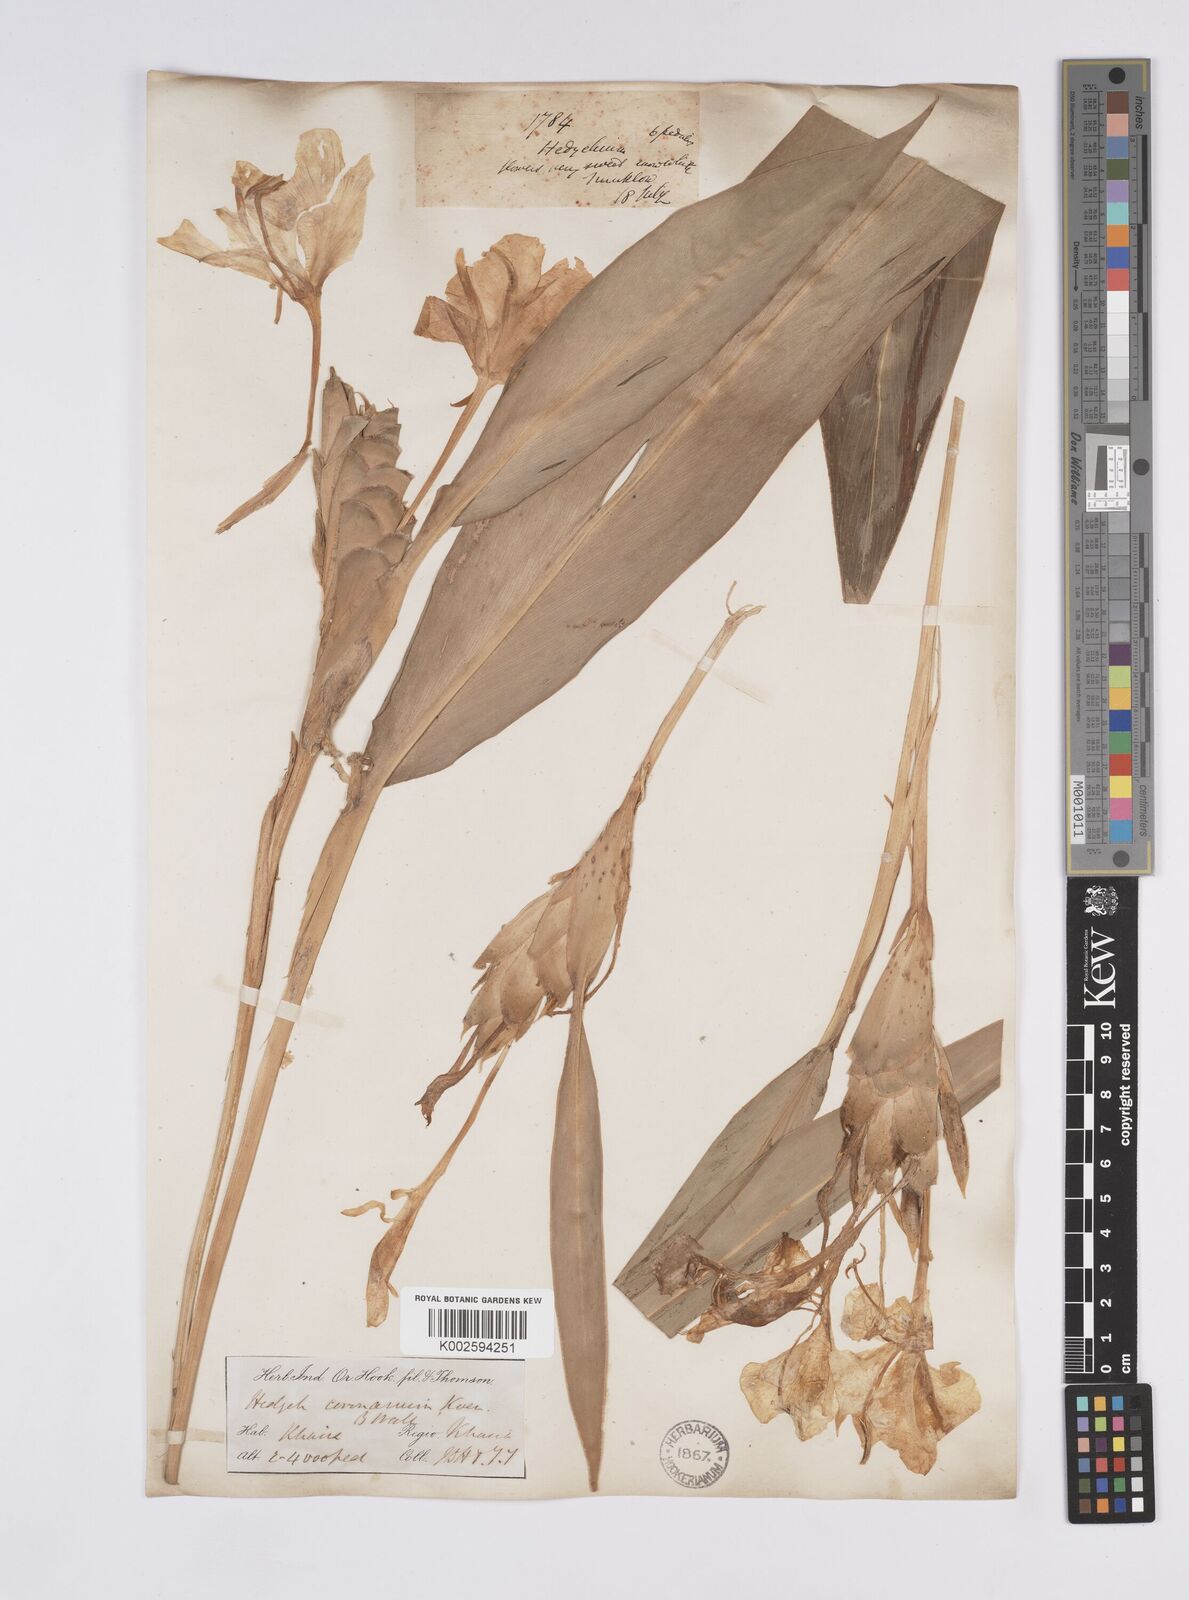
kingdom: Plantae
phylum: Tracheophyta
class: Liliopsida
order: Zingiberales
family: Zingiberaceae
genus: Hedychium
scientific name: Hedychium coronarium
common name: White garland-lily
